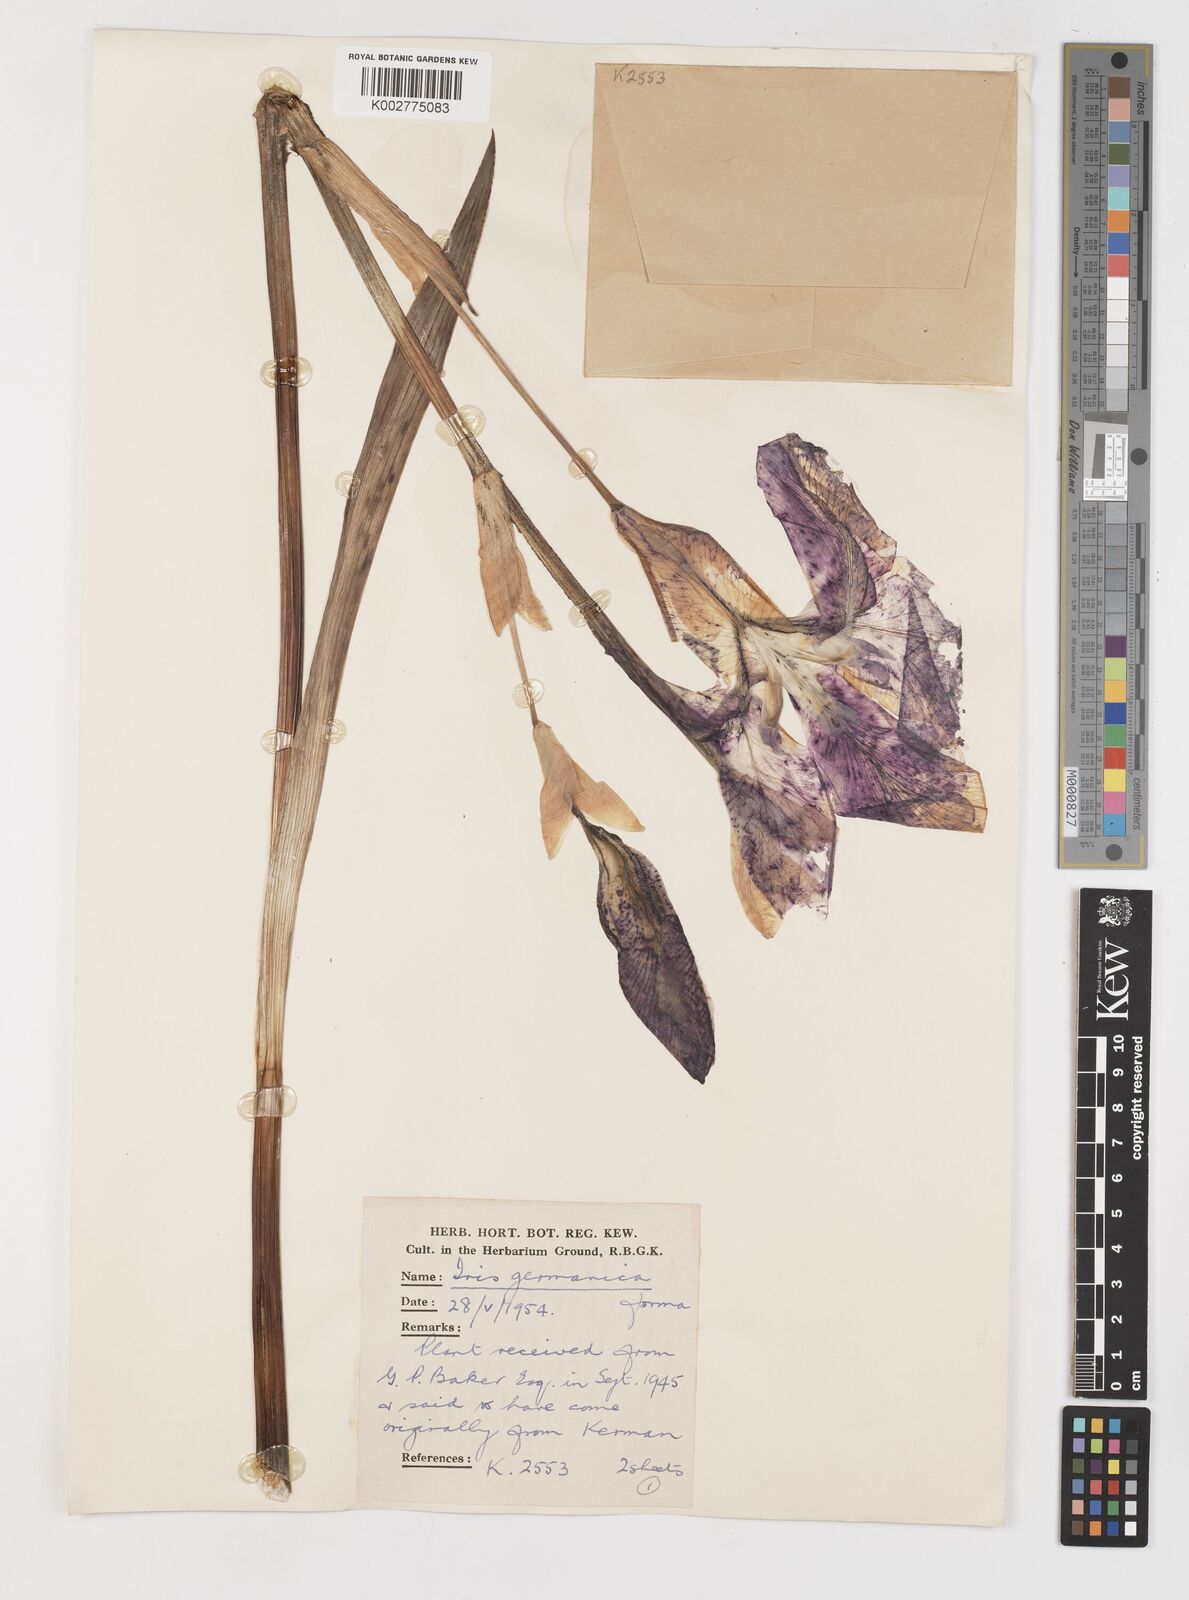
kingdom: Plantae
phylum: Tracheophyta
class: Liliopsida
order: Asparagales
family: Iridaceae
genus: Iris
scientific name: Iris germanica
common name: German iris
